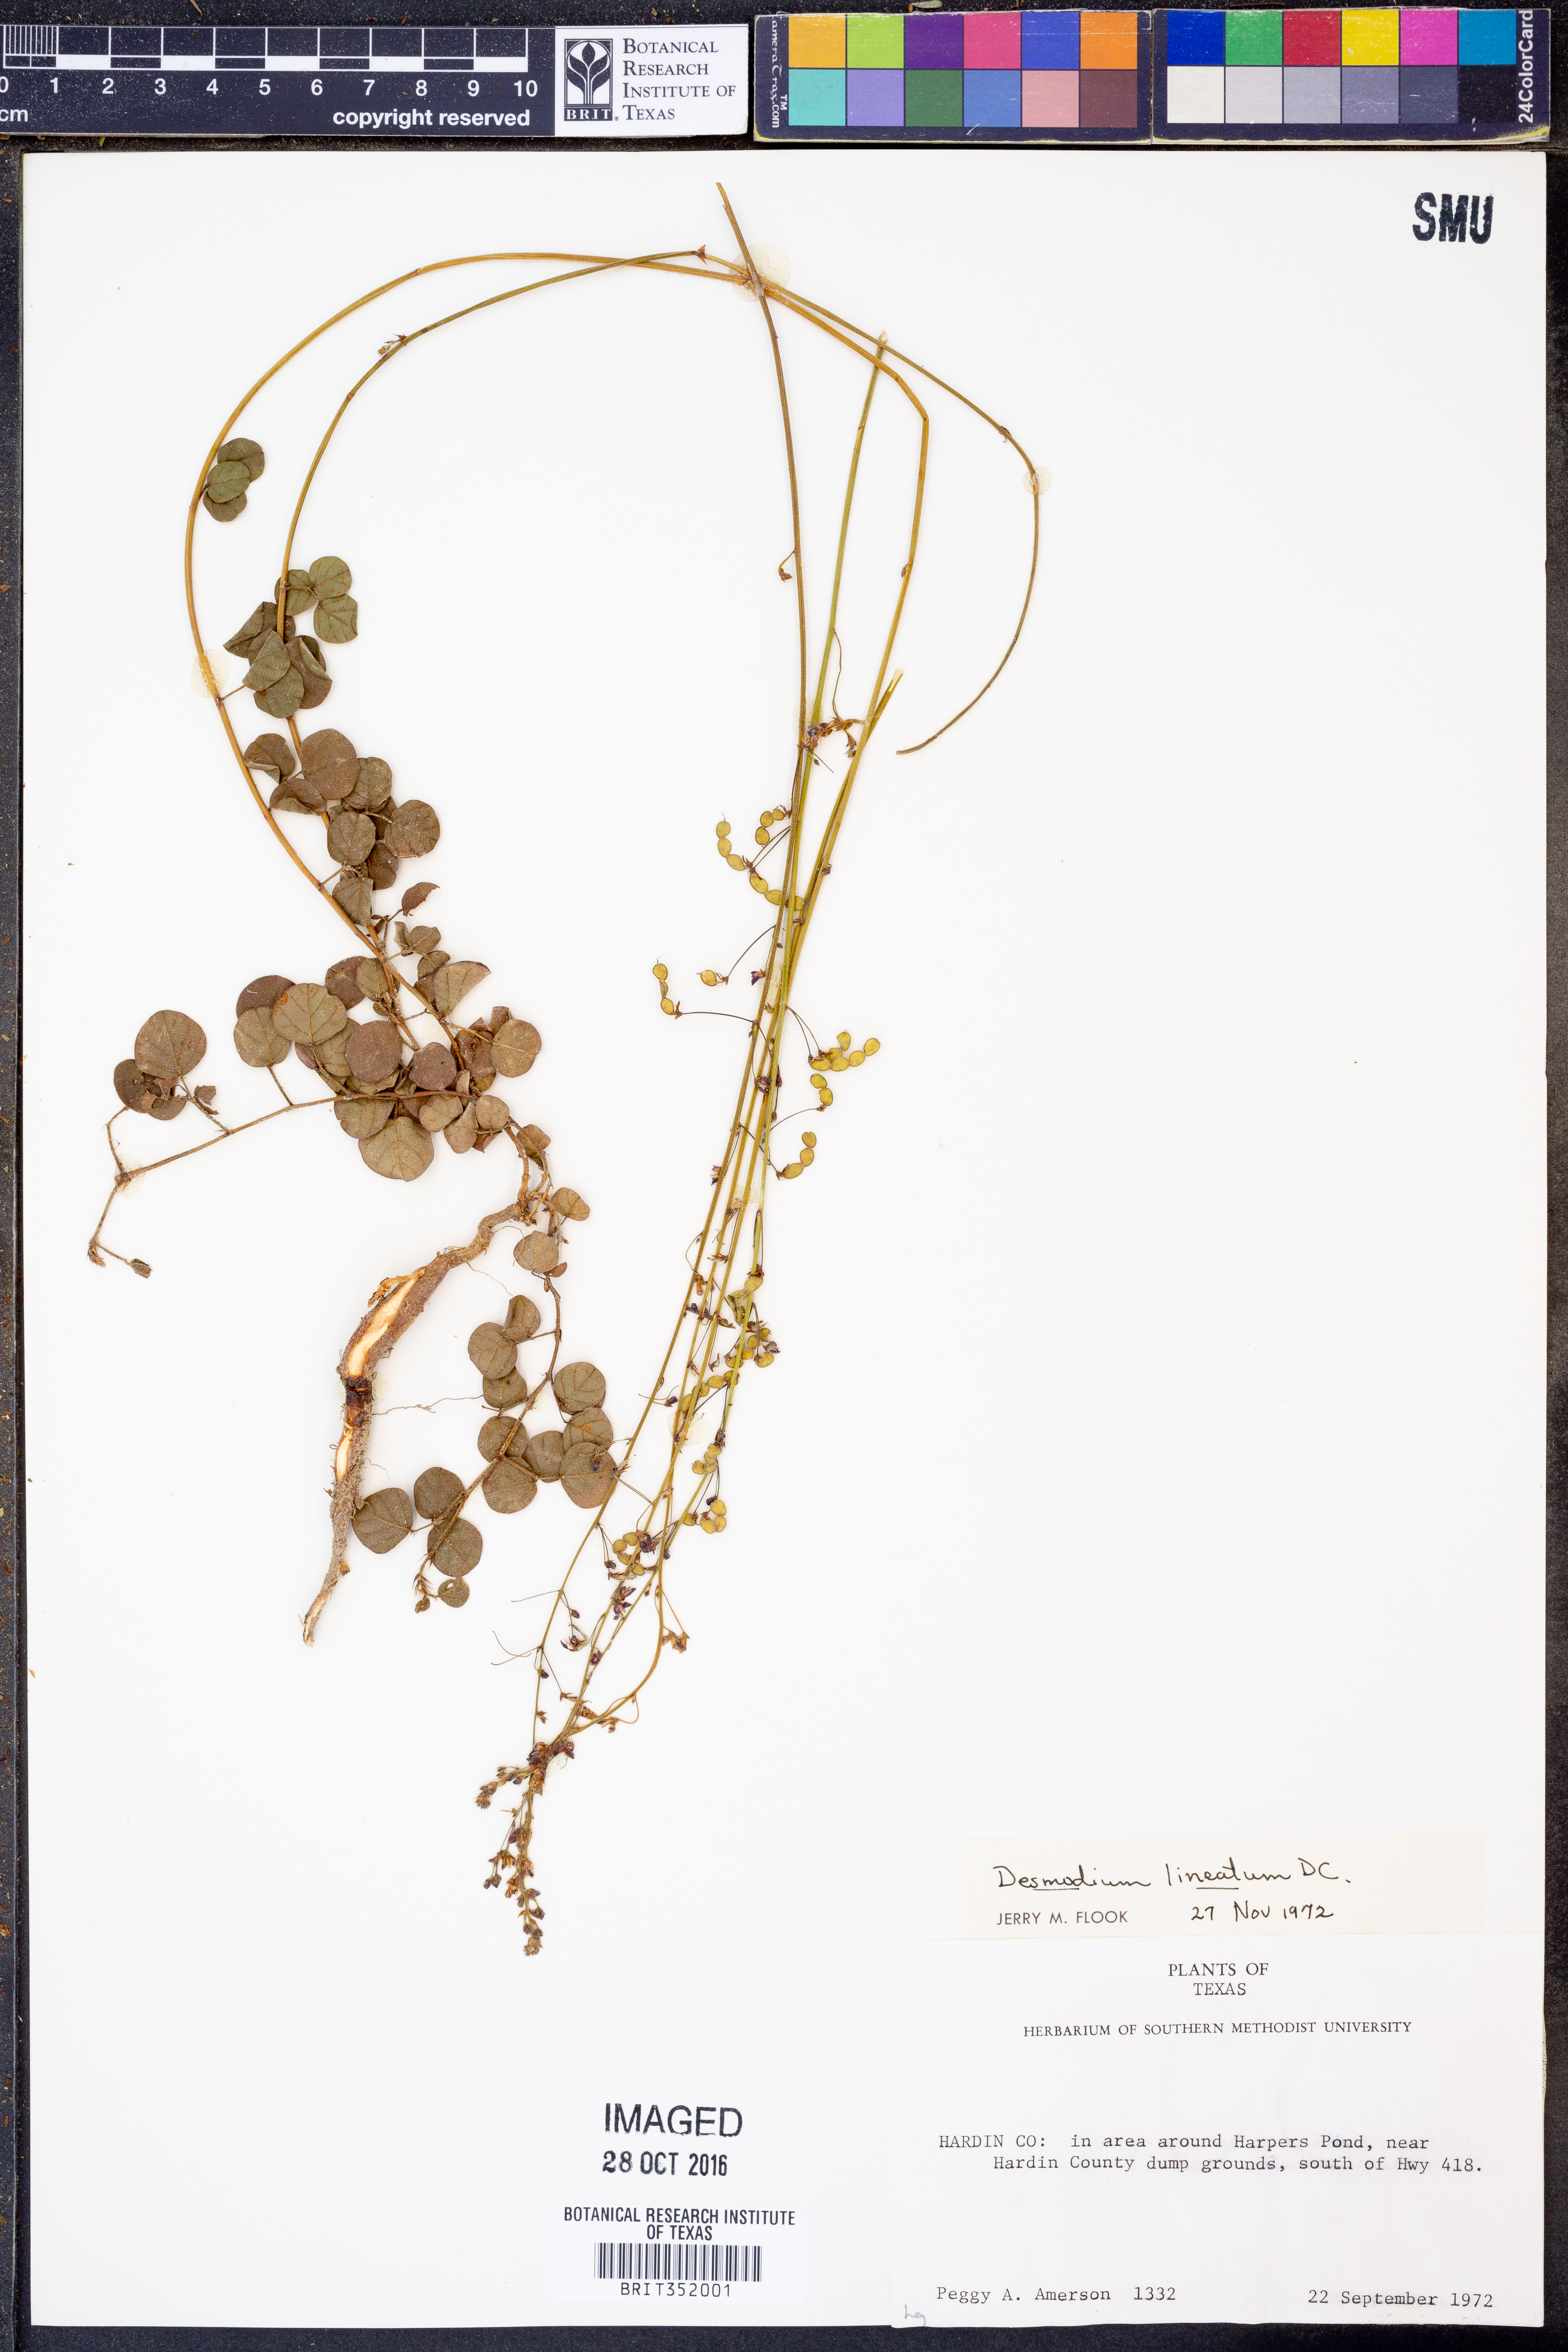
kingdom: Plantae
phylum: Tracheophyta
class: Magnoliopsida
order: Fabales
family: Fabaceae
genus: Desmodium
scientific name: Desmodium lineatum
